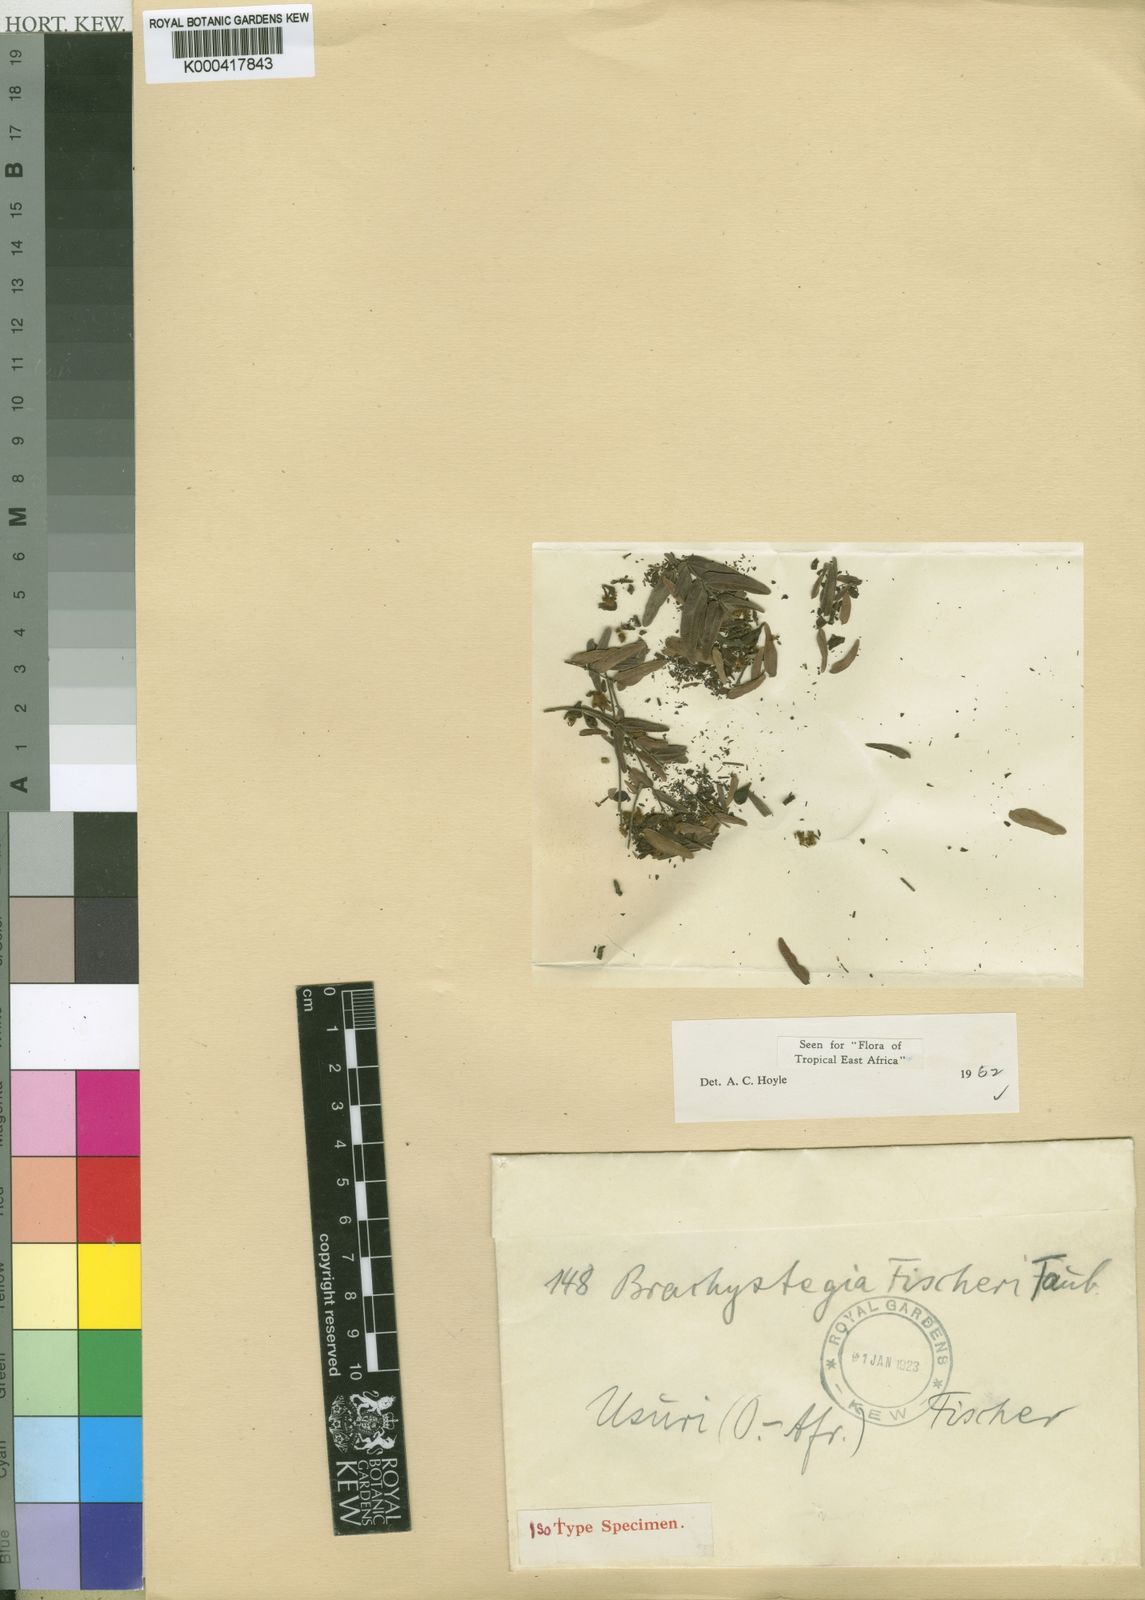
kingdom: Plantae
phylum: Tracheophyta
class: Magnoliopsida
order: Fabales
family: Fabaceae
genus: Brachystegia
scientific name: Brachystegia
